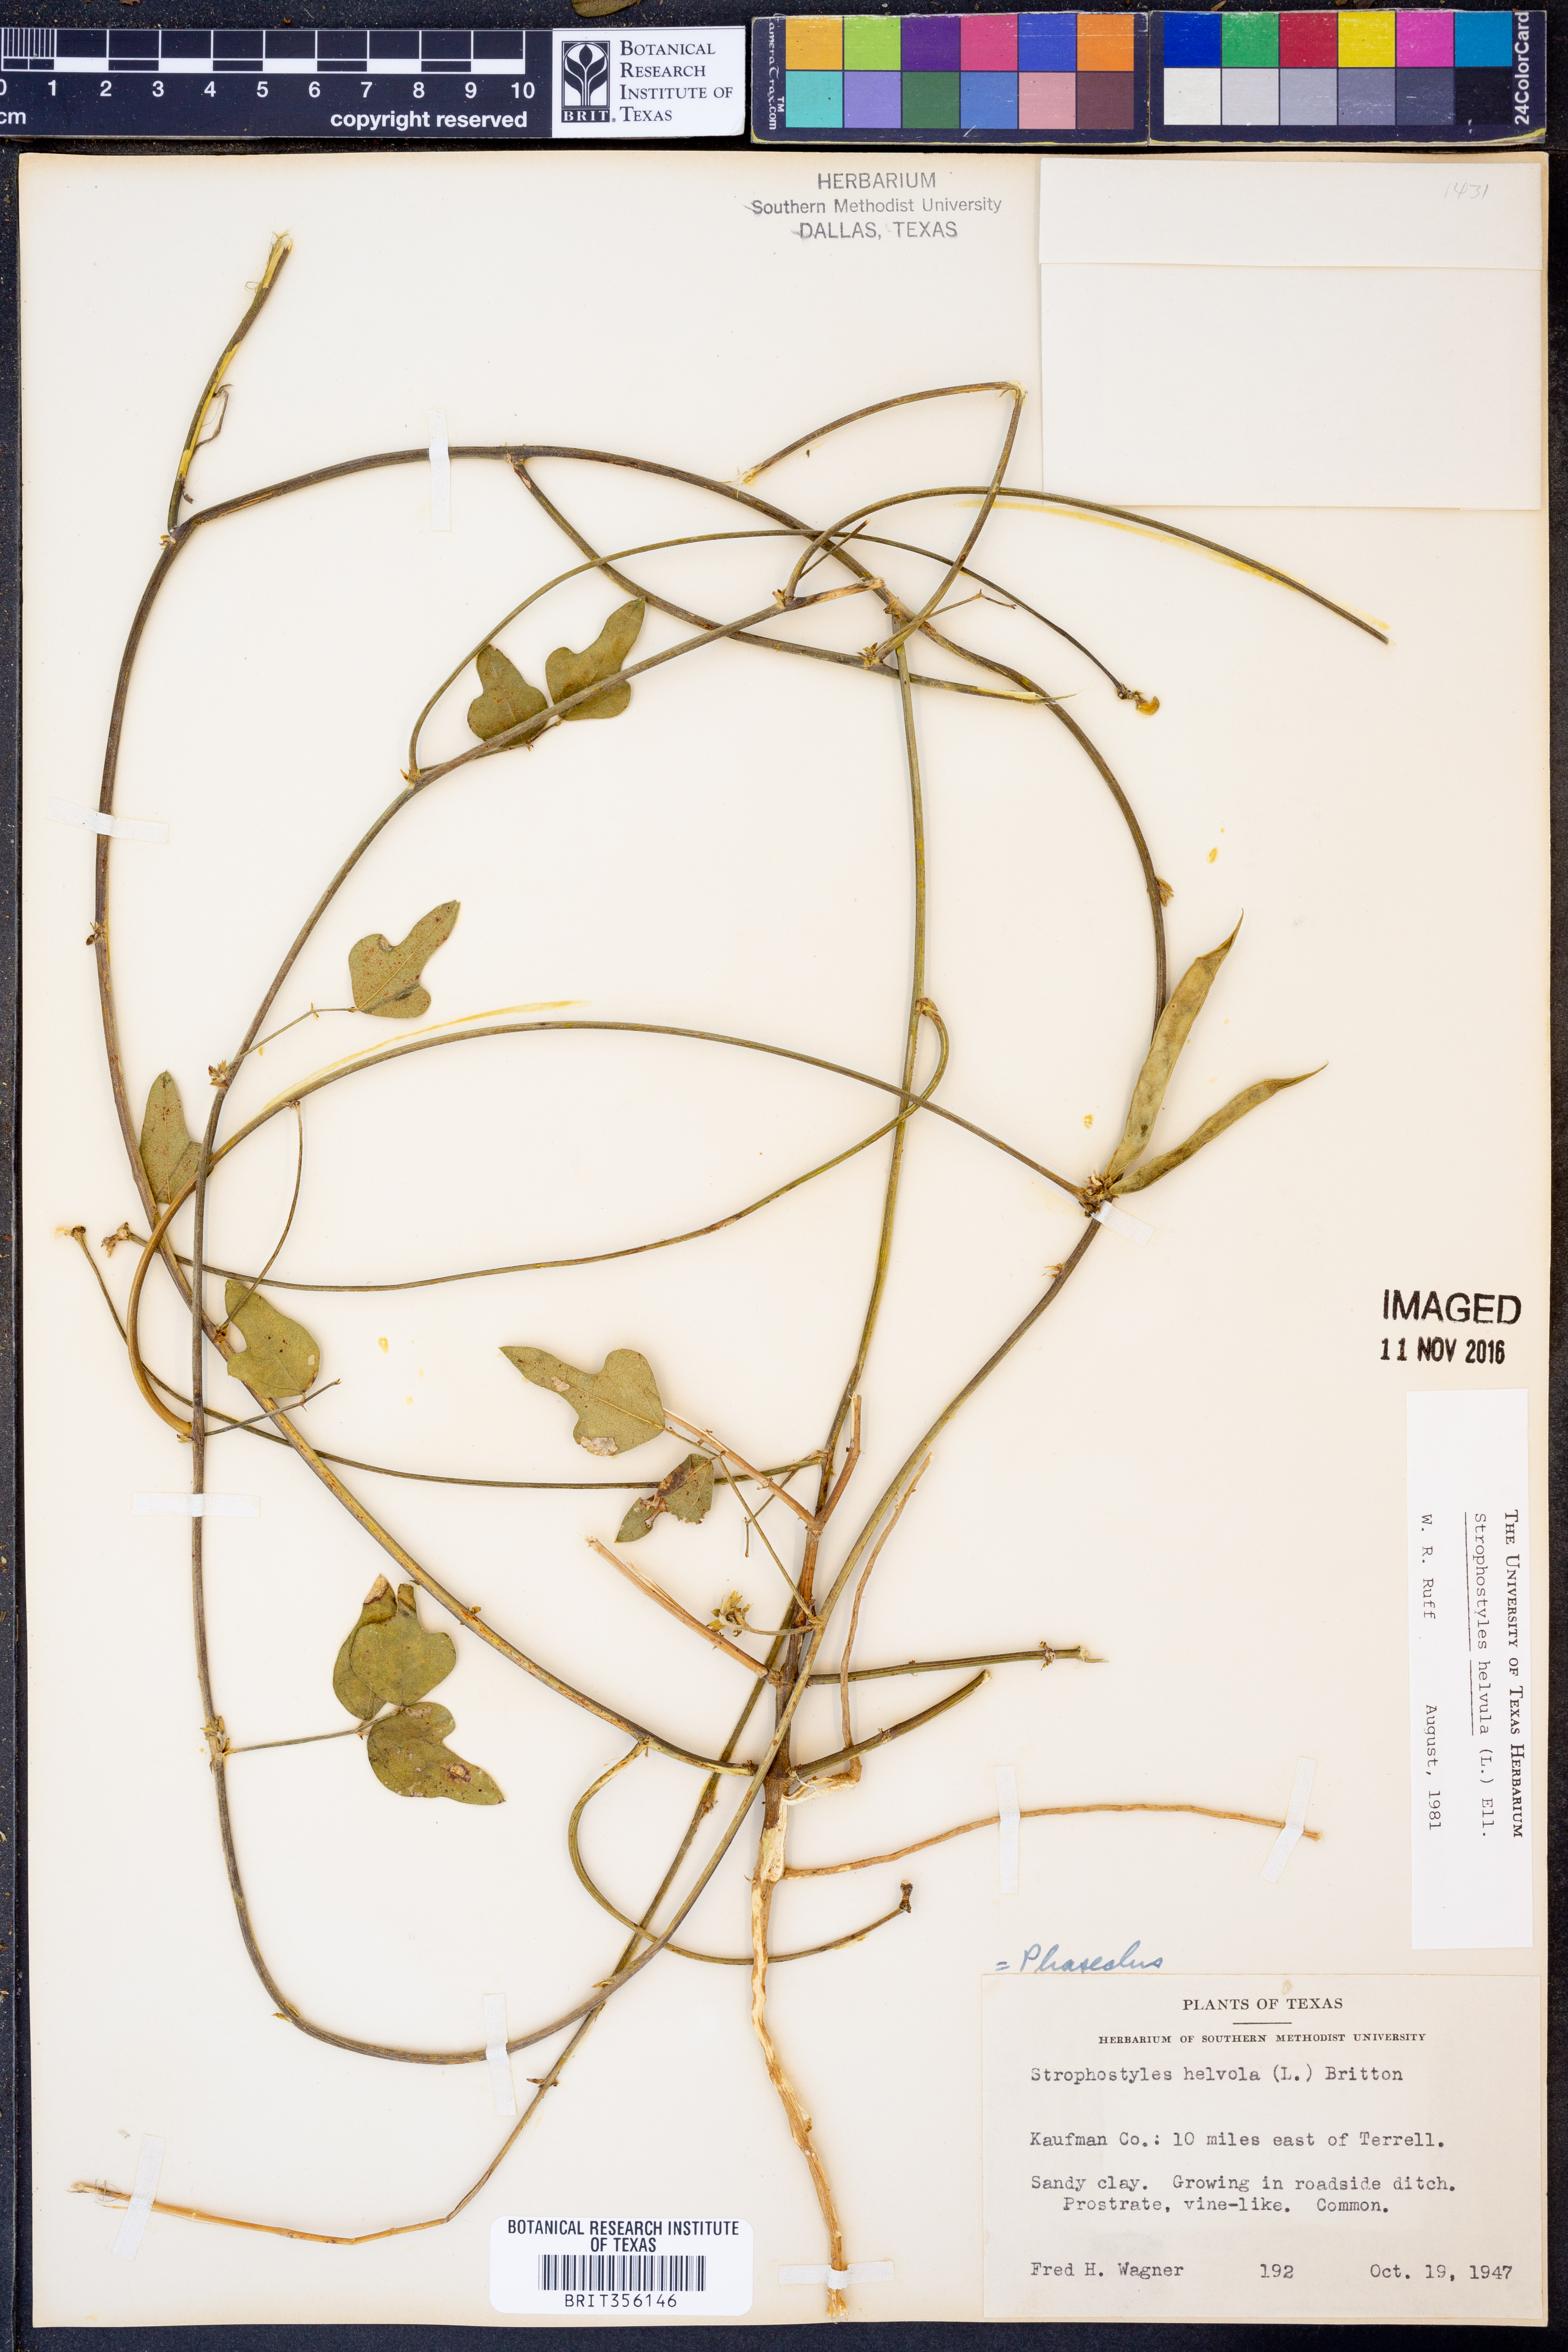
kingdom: Plantae
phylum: Tracheophyta
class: Magnoliopsida
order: Fabales
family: Fabaceae
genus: Strophostyles
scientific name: Strophostyles helvula
